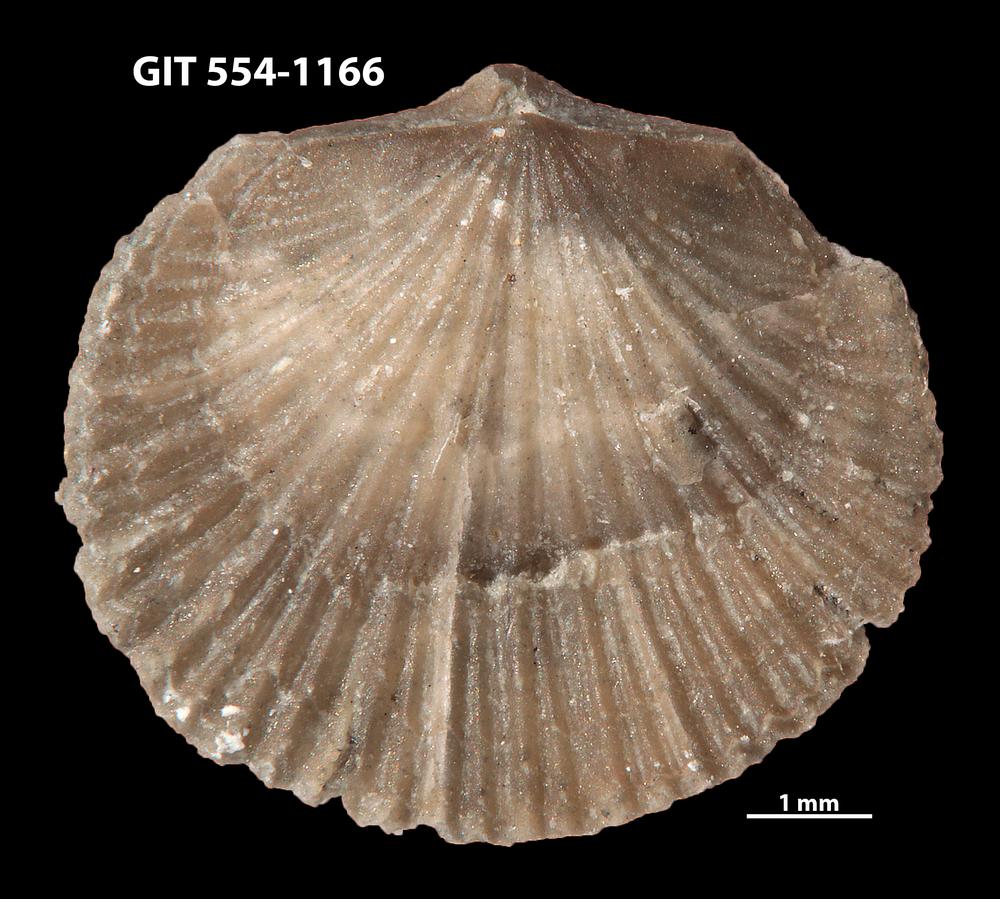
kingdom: Animalia
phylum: Brachiopoda
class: Rhynchonellata
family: Rhipidomellidae
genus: Mendacella
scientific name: Mendacella circularis
